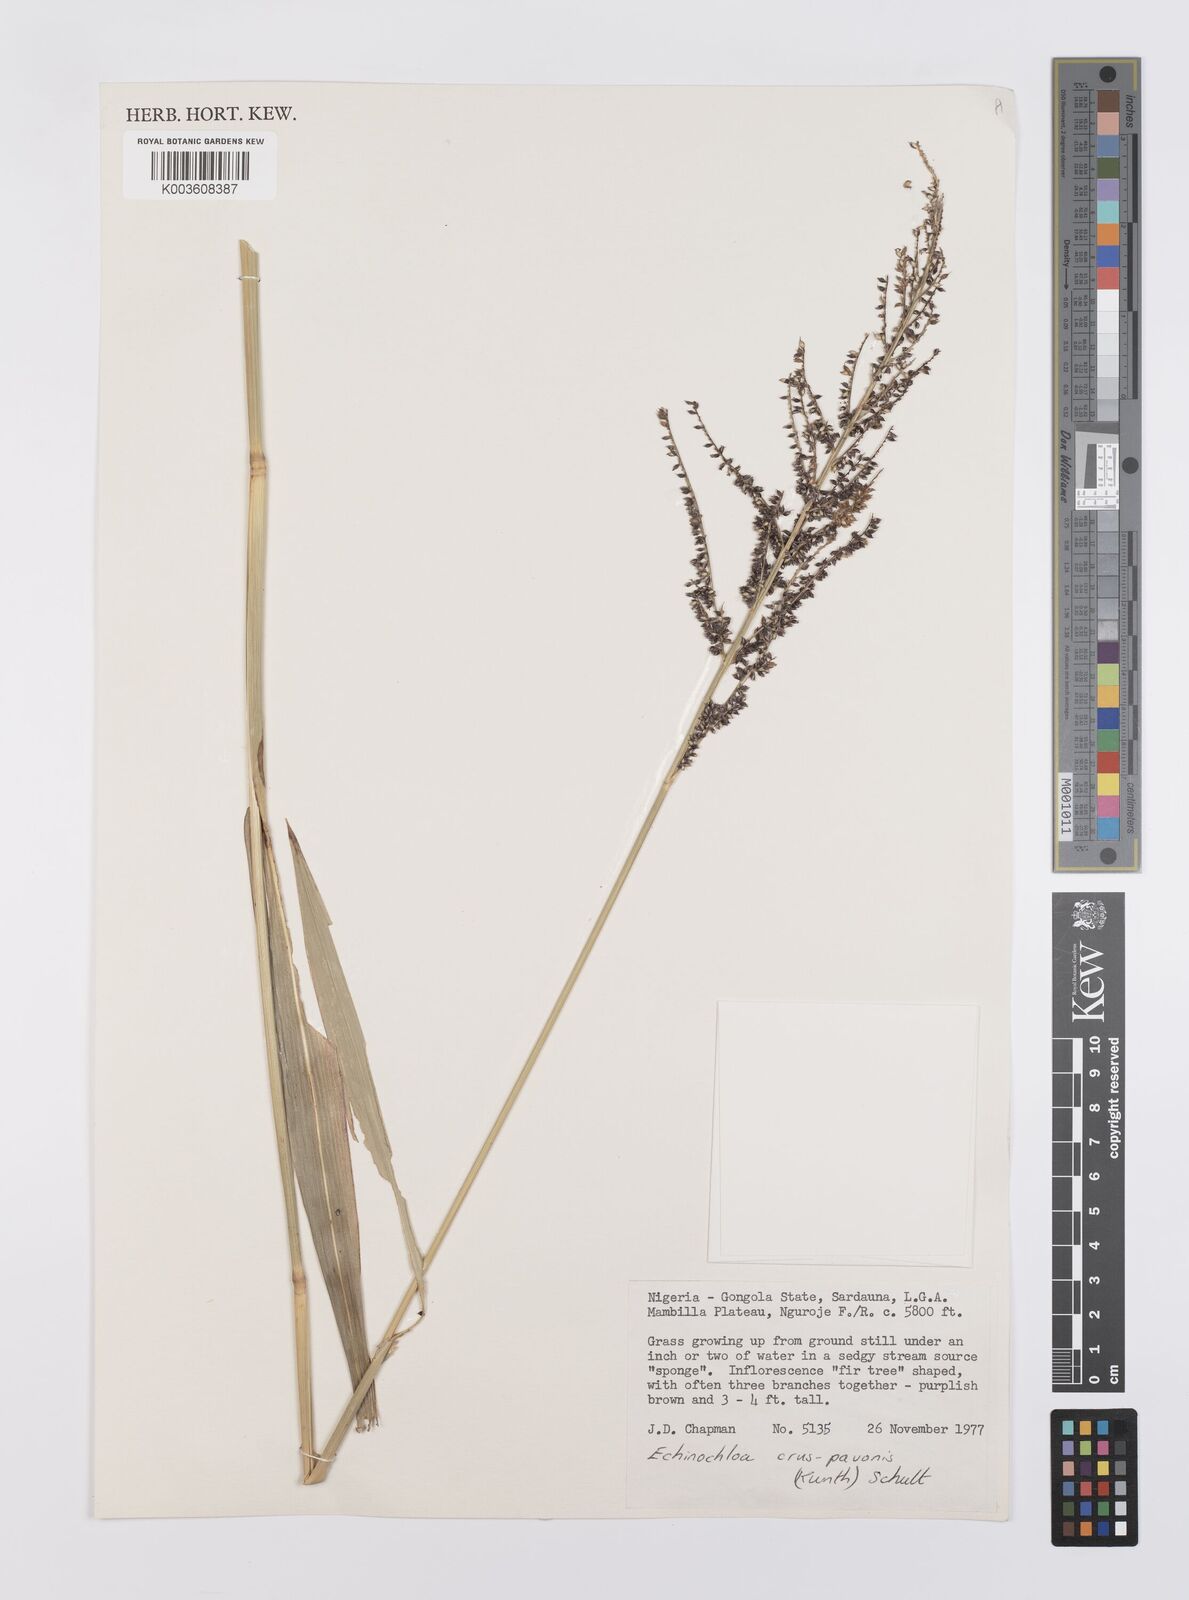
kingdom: Plantae
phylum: Tracheophyta
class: Liliopsida
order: Poales
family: Poaceae
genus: Echinochloa
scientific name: Echinochloa crus-pavonis
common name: Gulf cockspur grass
